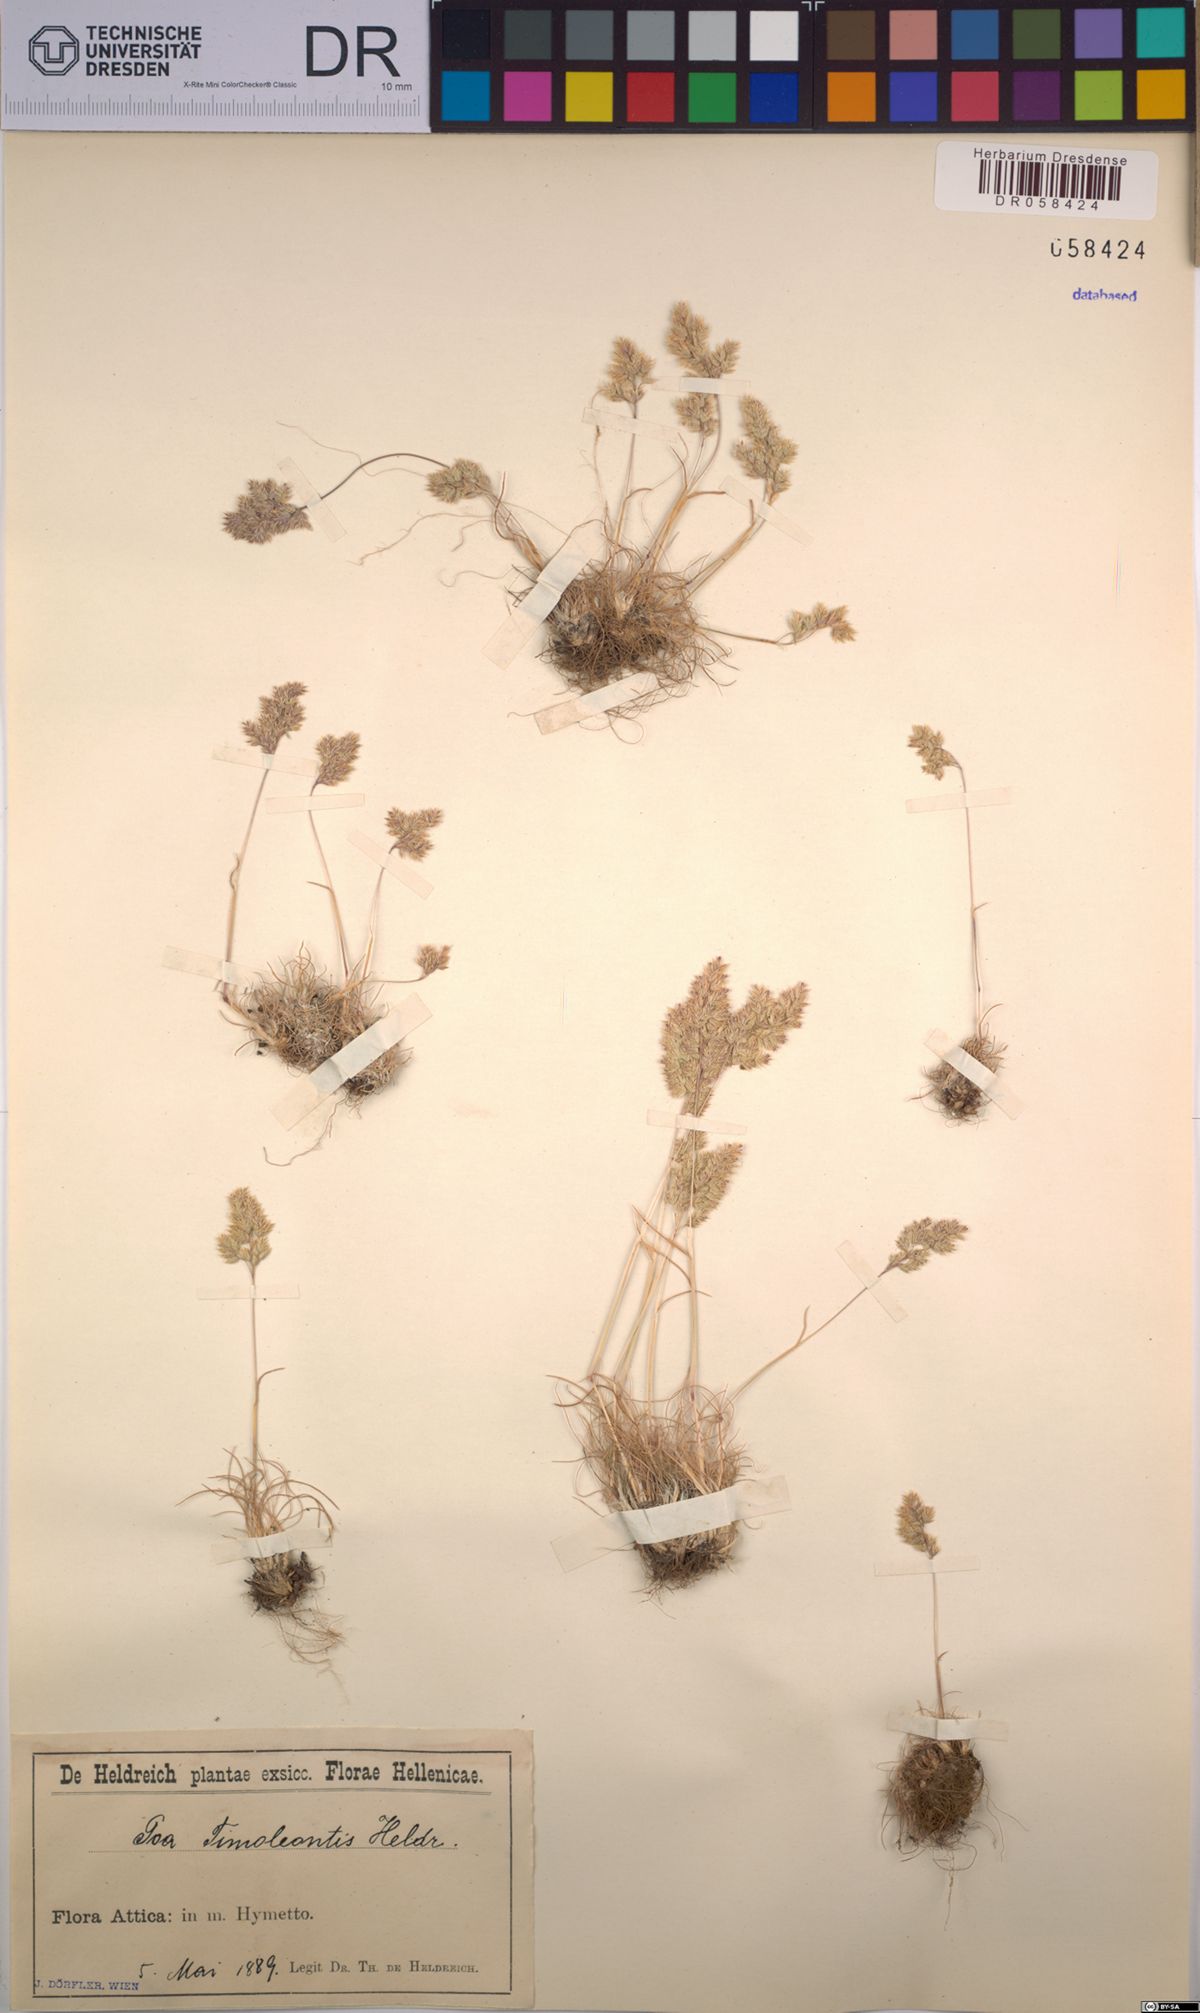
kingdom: Plantae
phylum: Tracheophyta
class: Liliopsida
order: Poales
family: Poaceae
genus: Poa
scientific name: Poa timoleontis
